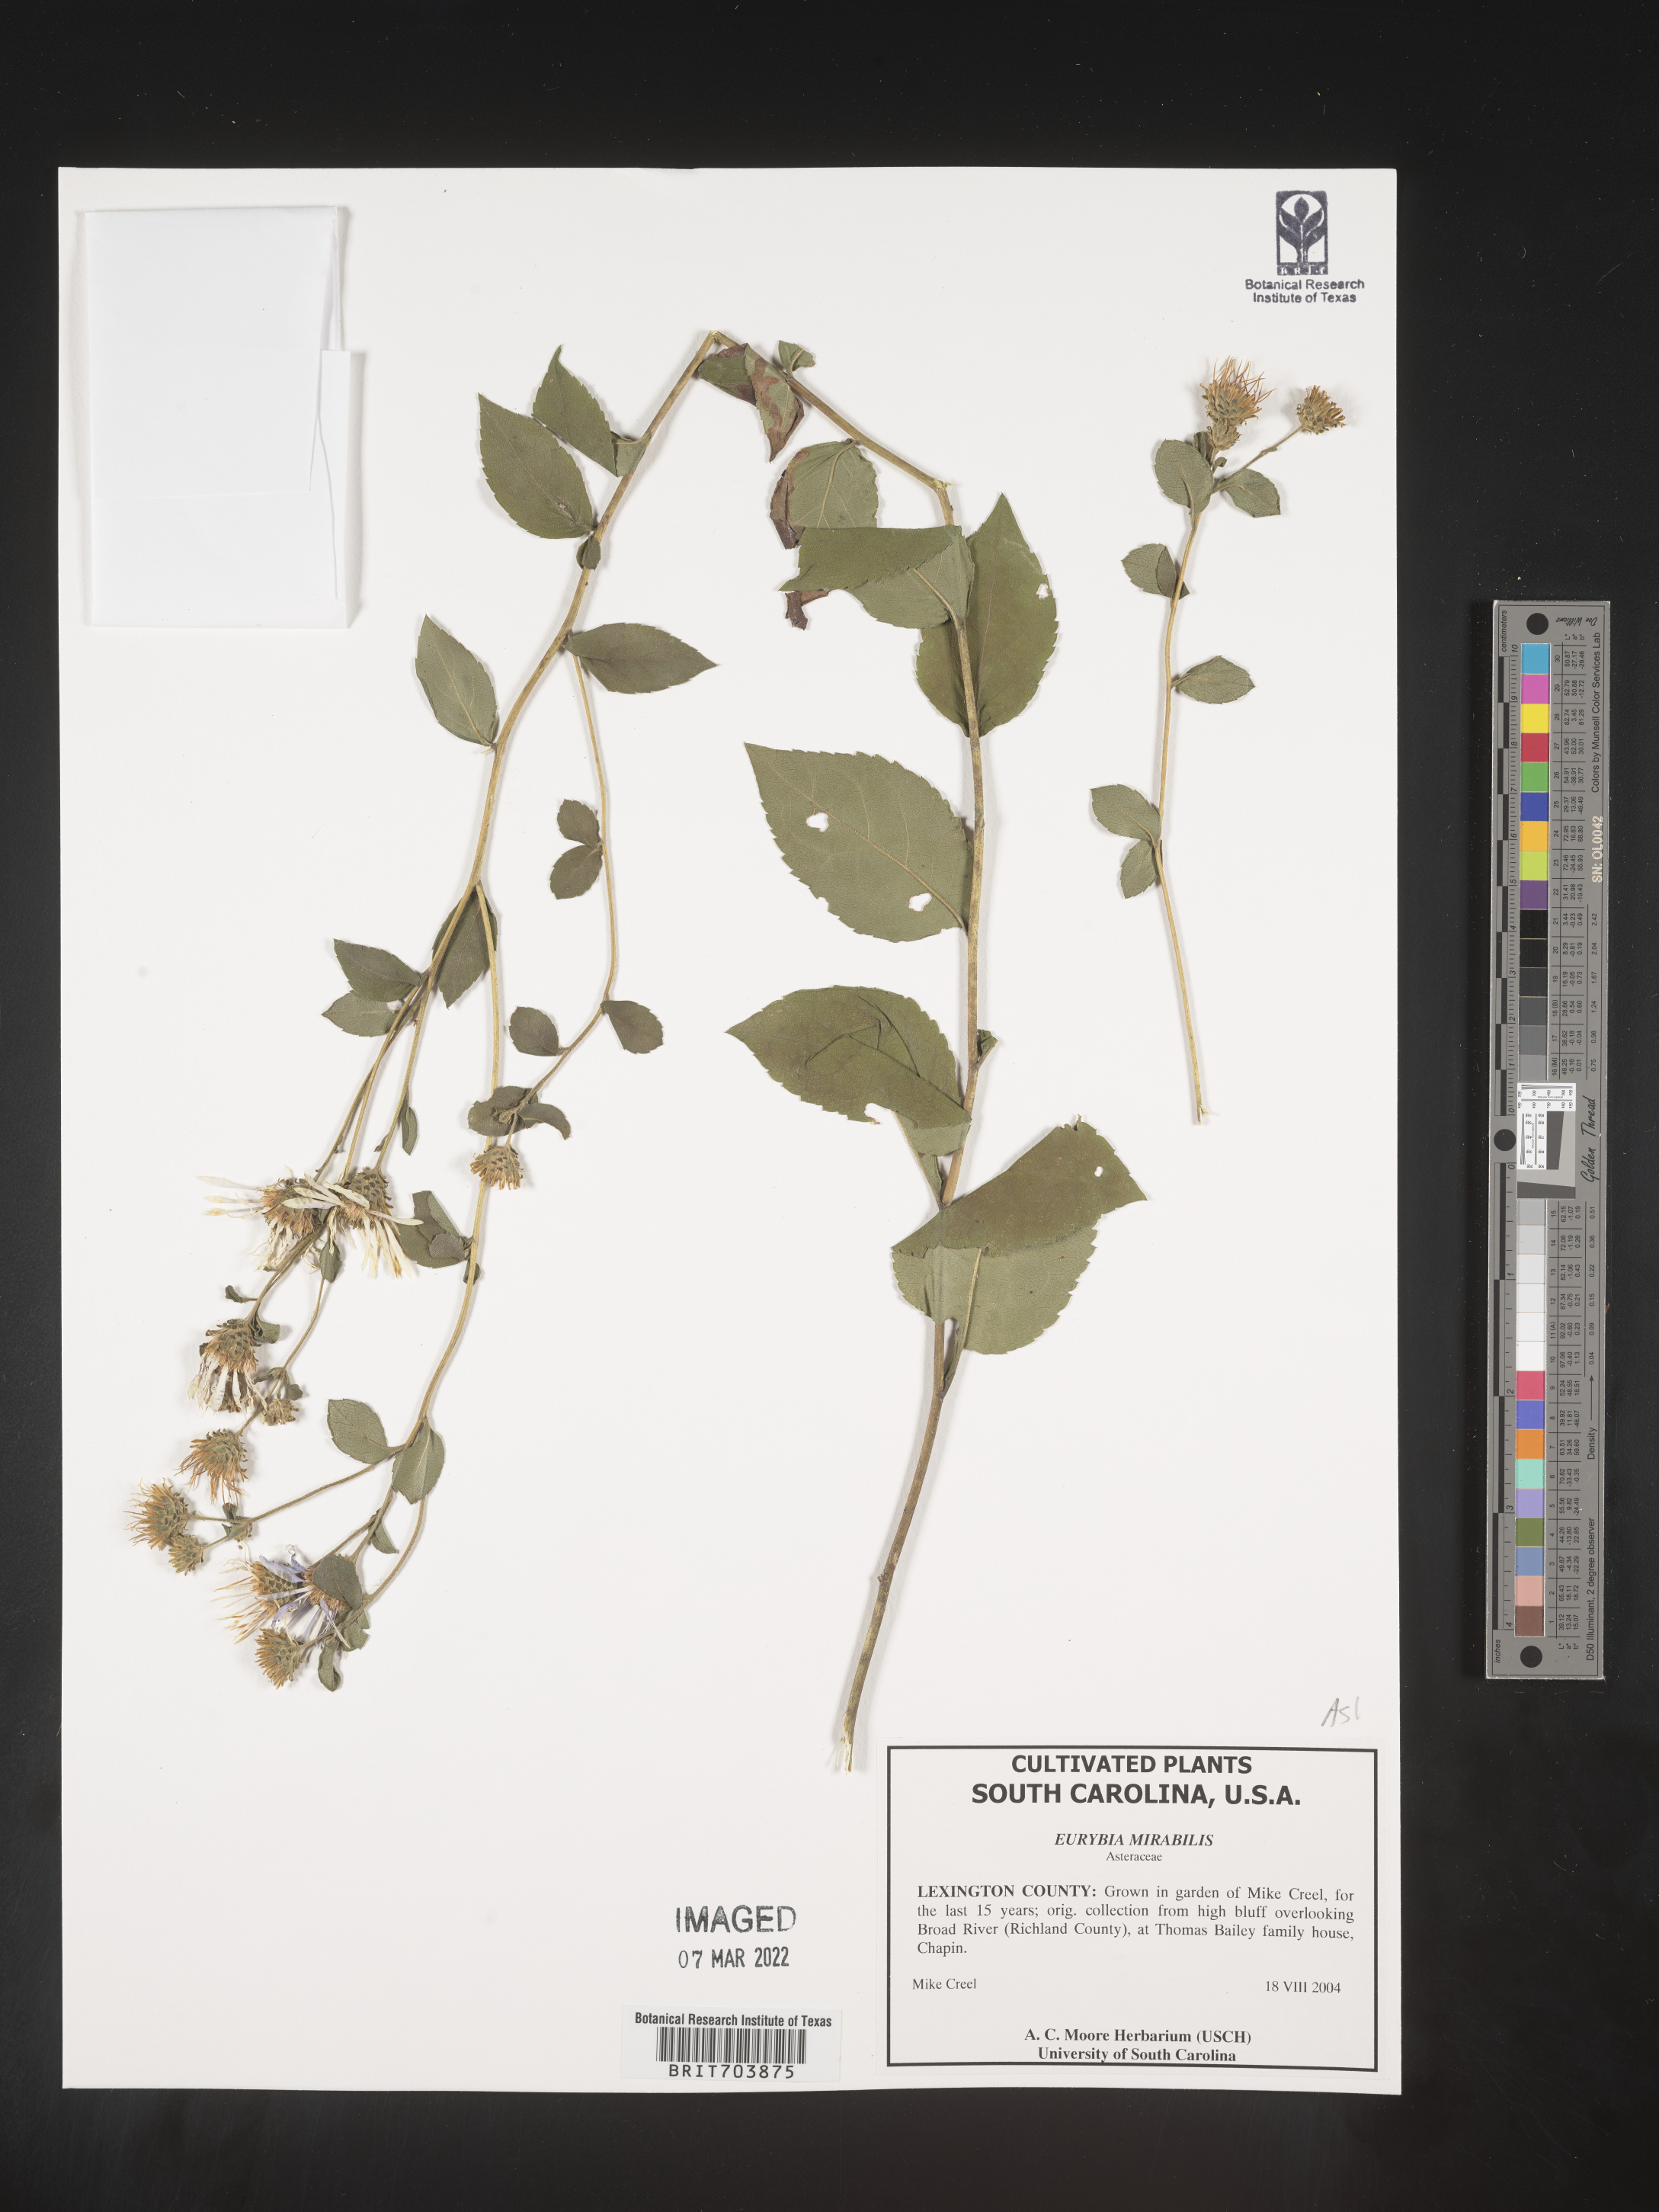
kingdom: Plantae
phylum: Tracheophyta
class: Magnoliopsida
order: Asterales
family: Asteraceae
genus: Eurybia
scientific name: Eurybia mirabilis
